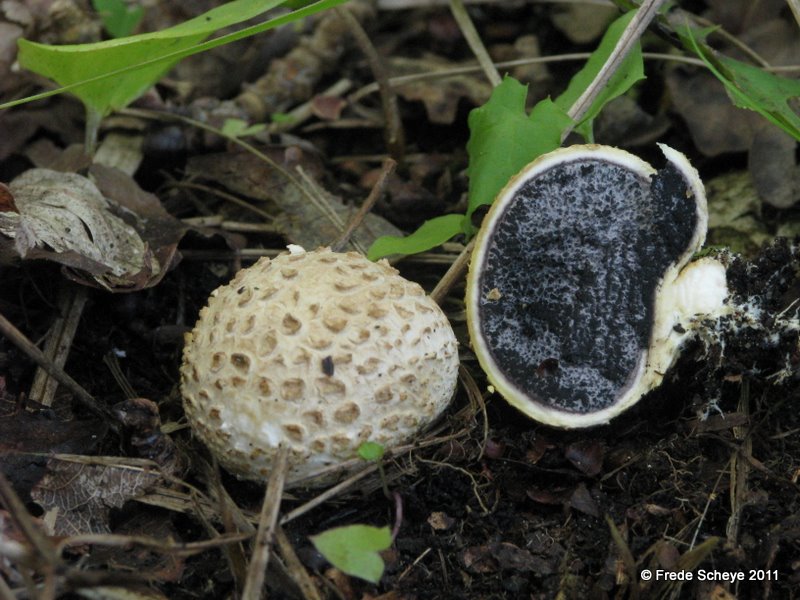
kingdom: Fungi
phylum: Basidiomycota
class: Agaricomycetes
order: Boletales
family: Sclerodermataceae
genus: Scleroderma
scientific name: Scleroderma citrinum
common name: almindelig bruskbold
